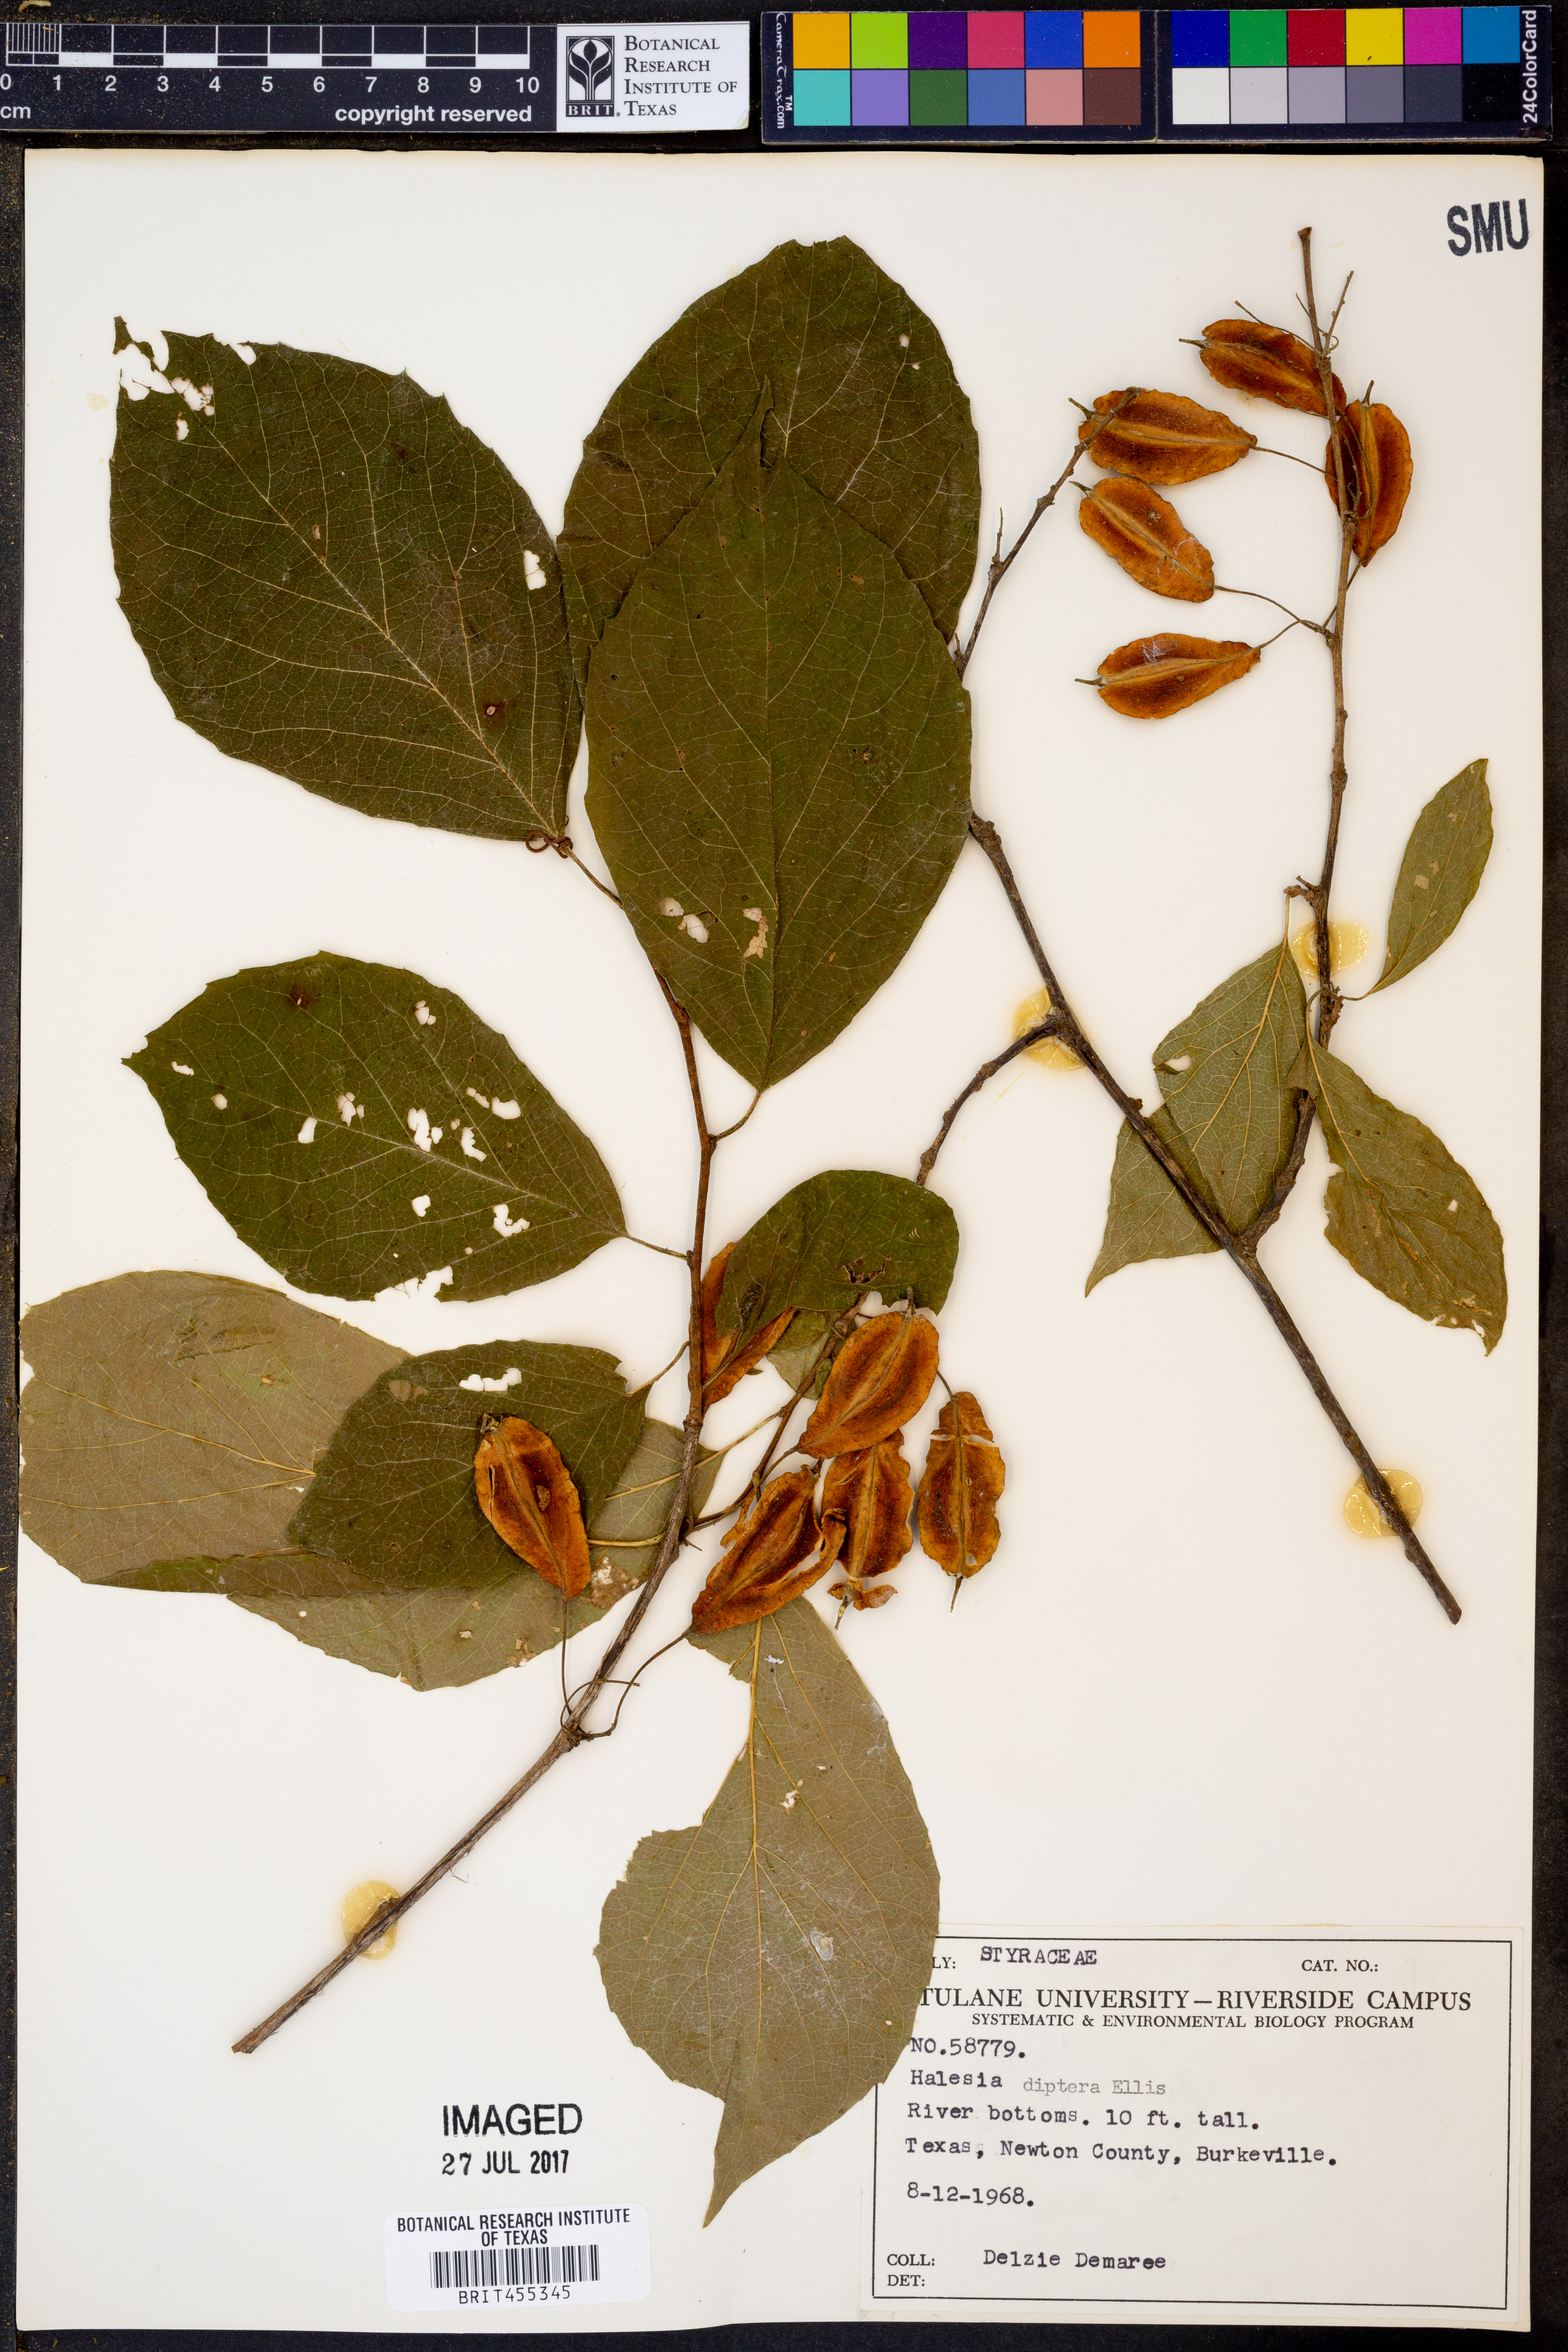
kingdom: Plantae
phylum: Tracheophyta
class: Magnoliopsida
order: Ericales
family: Styracaceae
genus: Halesia
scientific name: Halesia diptera
